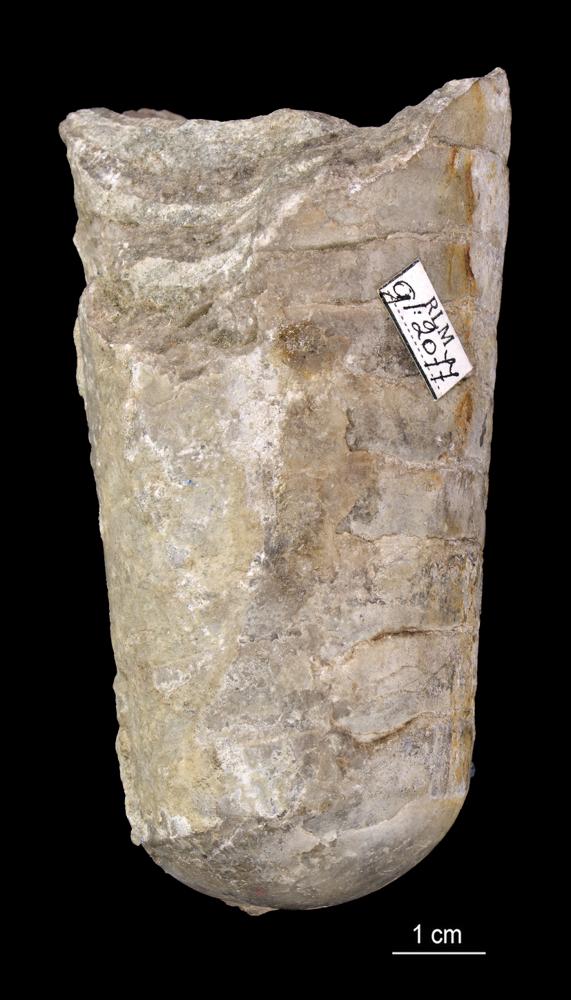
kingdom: Animalia
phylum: Mollusca
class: Cephalopoda
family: Endoceratidae
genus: Cyclendoceras
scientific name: Cyclendoceras
